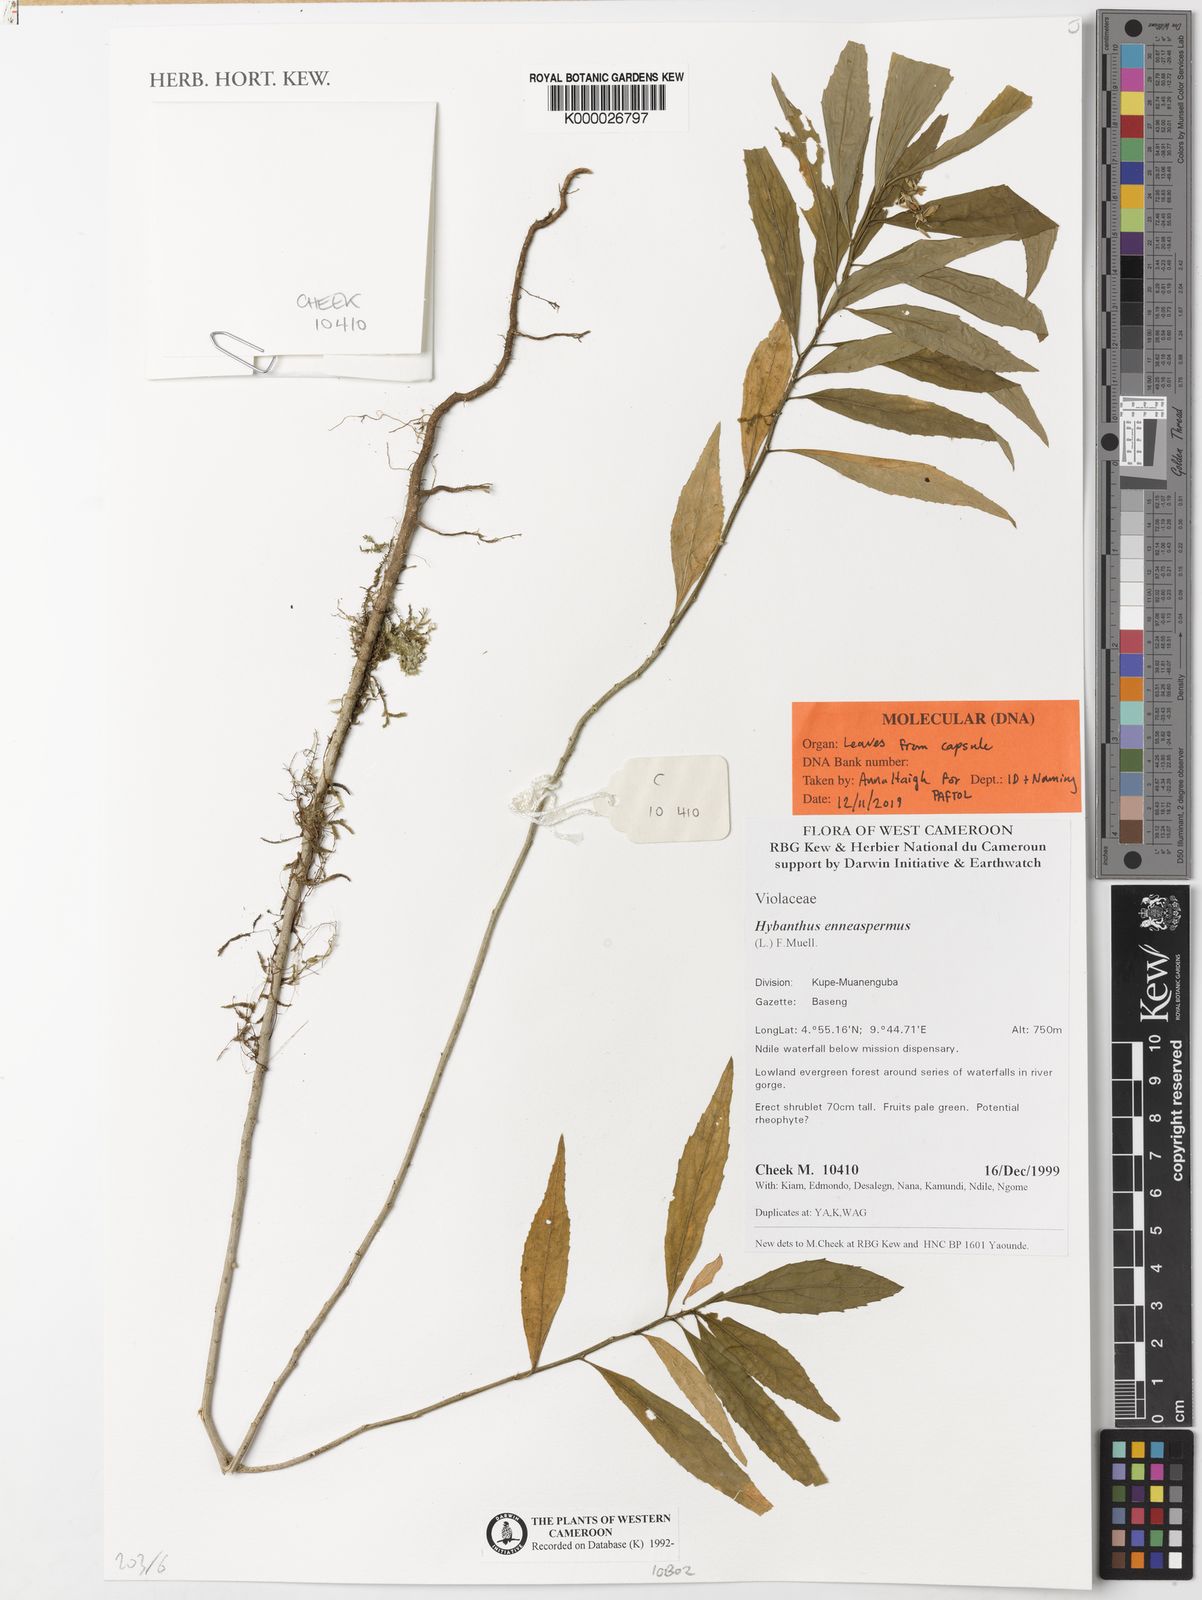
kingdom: Plantae
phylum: Tracheophyta
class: Magnoliopsida
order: Malpighiales
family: Violaceae
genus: Pigea
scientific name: Pigea enneasperma
